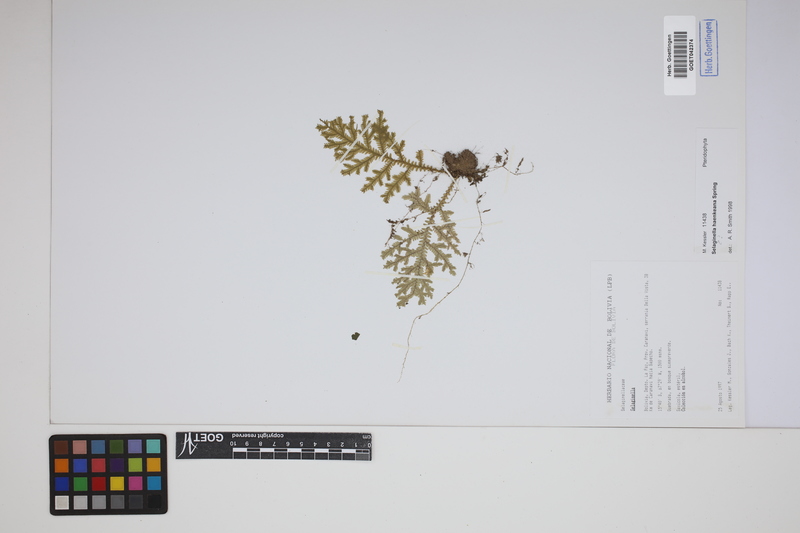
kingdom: Plantae
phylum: Tracheophyta
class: Lycopodiopsida
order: Selaginellales
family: Selaginellaceae
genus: Selaginella
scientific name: Selaginella haenkeana
